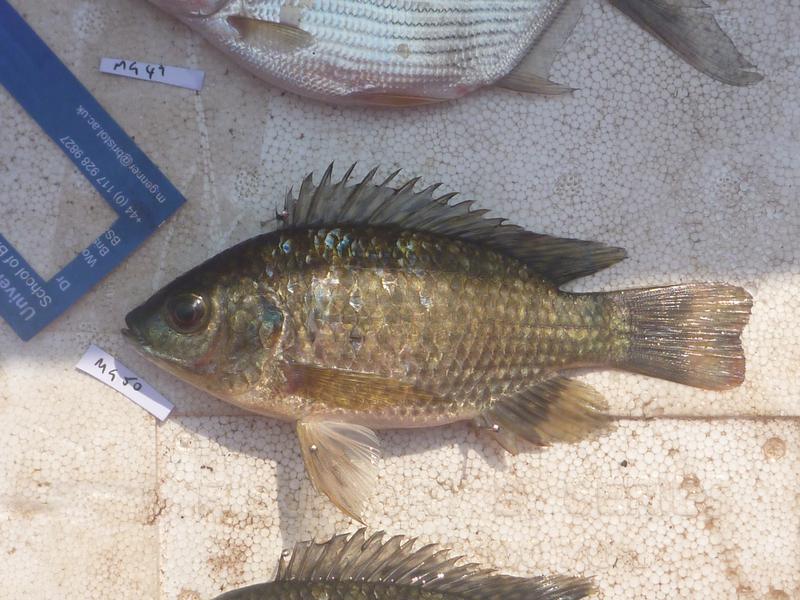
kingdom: Animalia
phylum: Chordata
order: Perciformes
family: Cichlidae
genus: Oreochromis
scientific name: Oreochromis leucostictus
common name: Blue spotted tilapia
